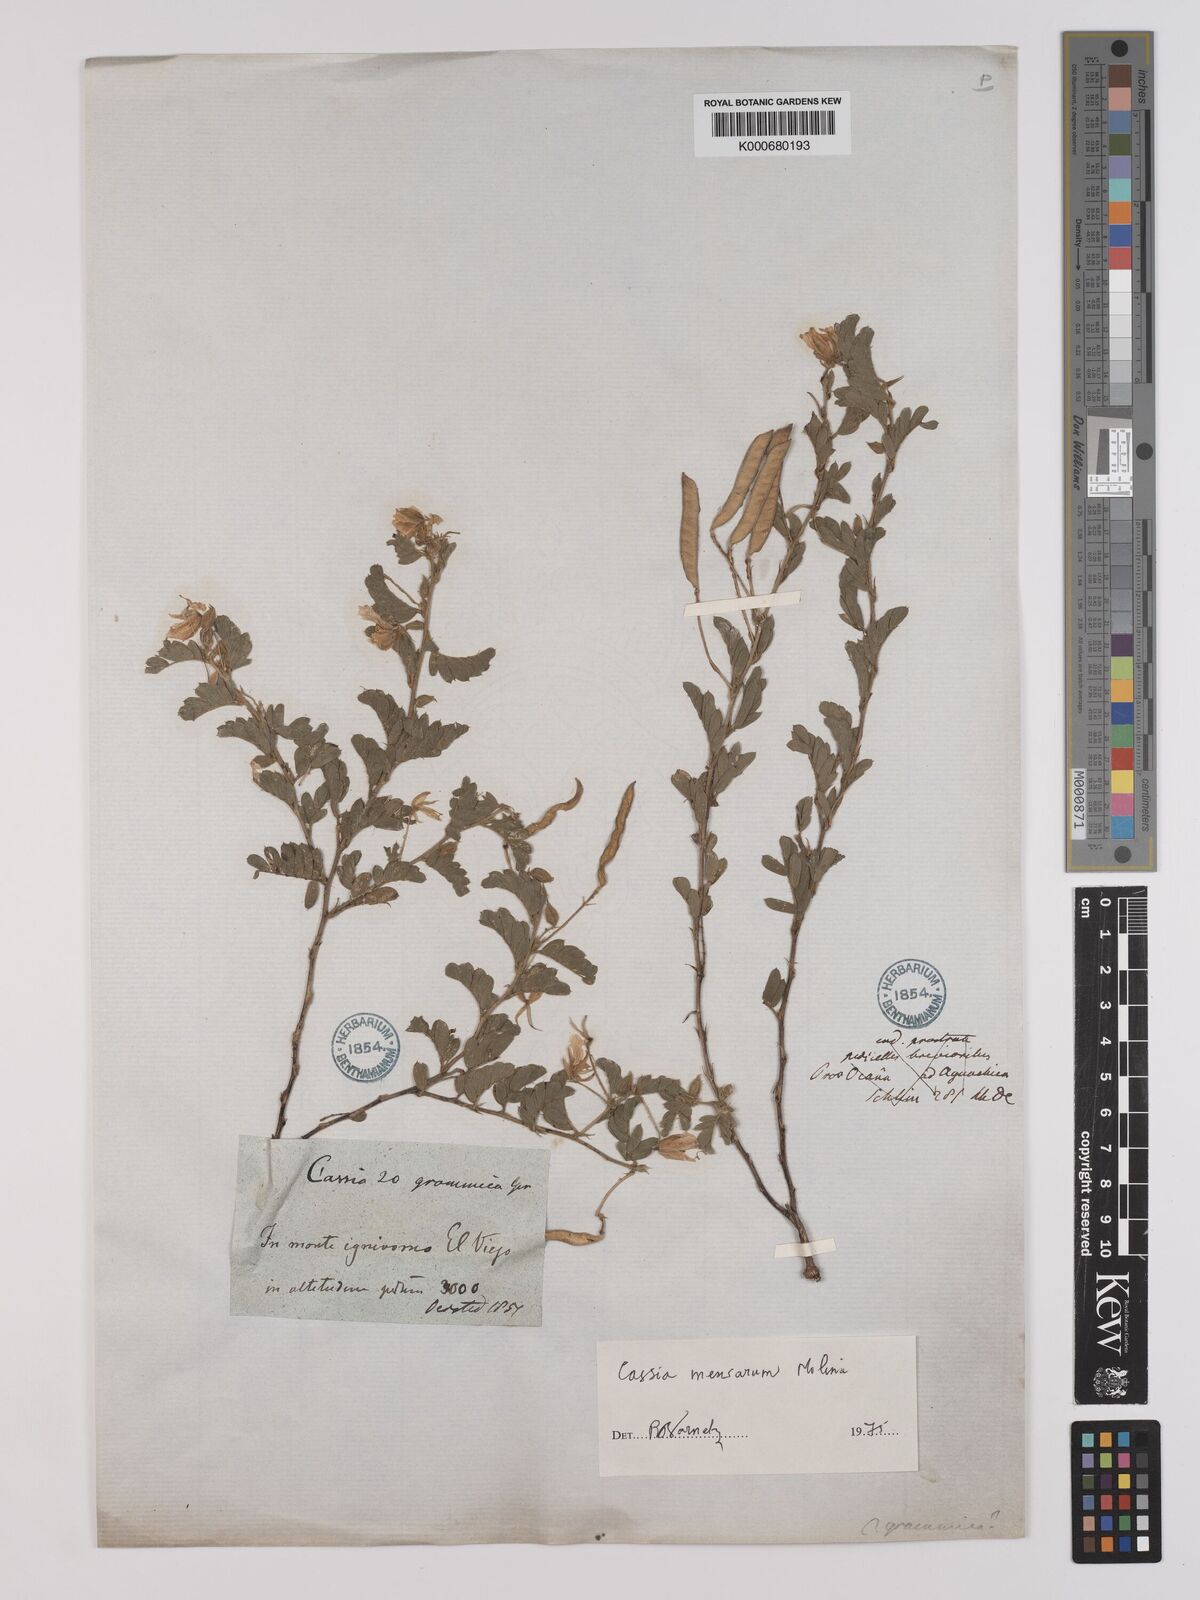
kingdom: Plantae
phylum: Tracheophyta
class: Magnoliopsida
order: Fabales
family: Fabaceae
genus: Chamaecrista
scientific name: Chamaecrista serpens
